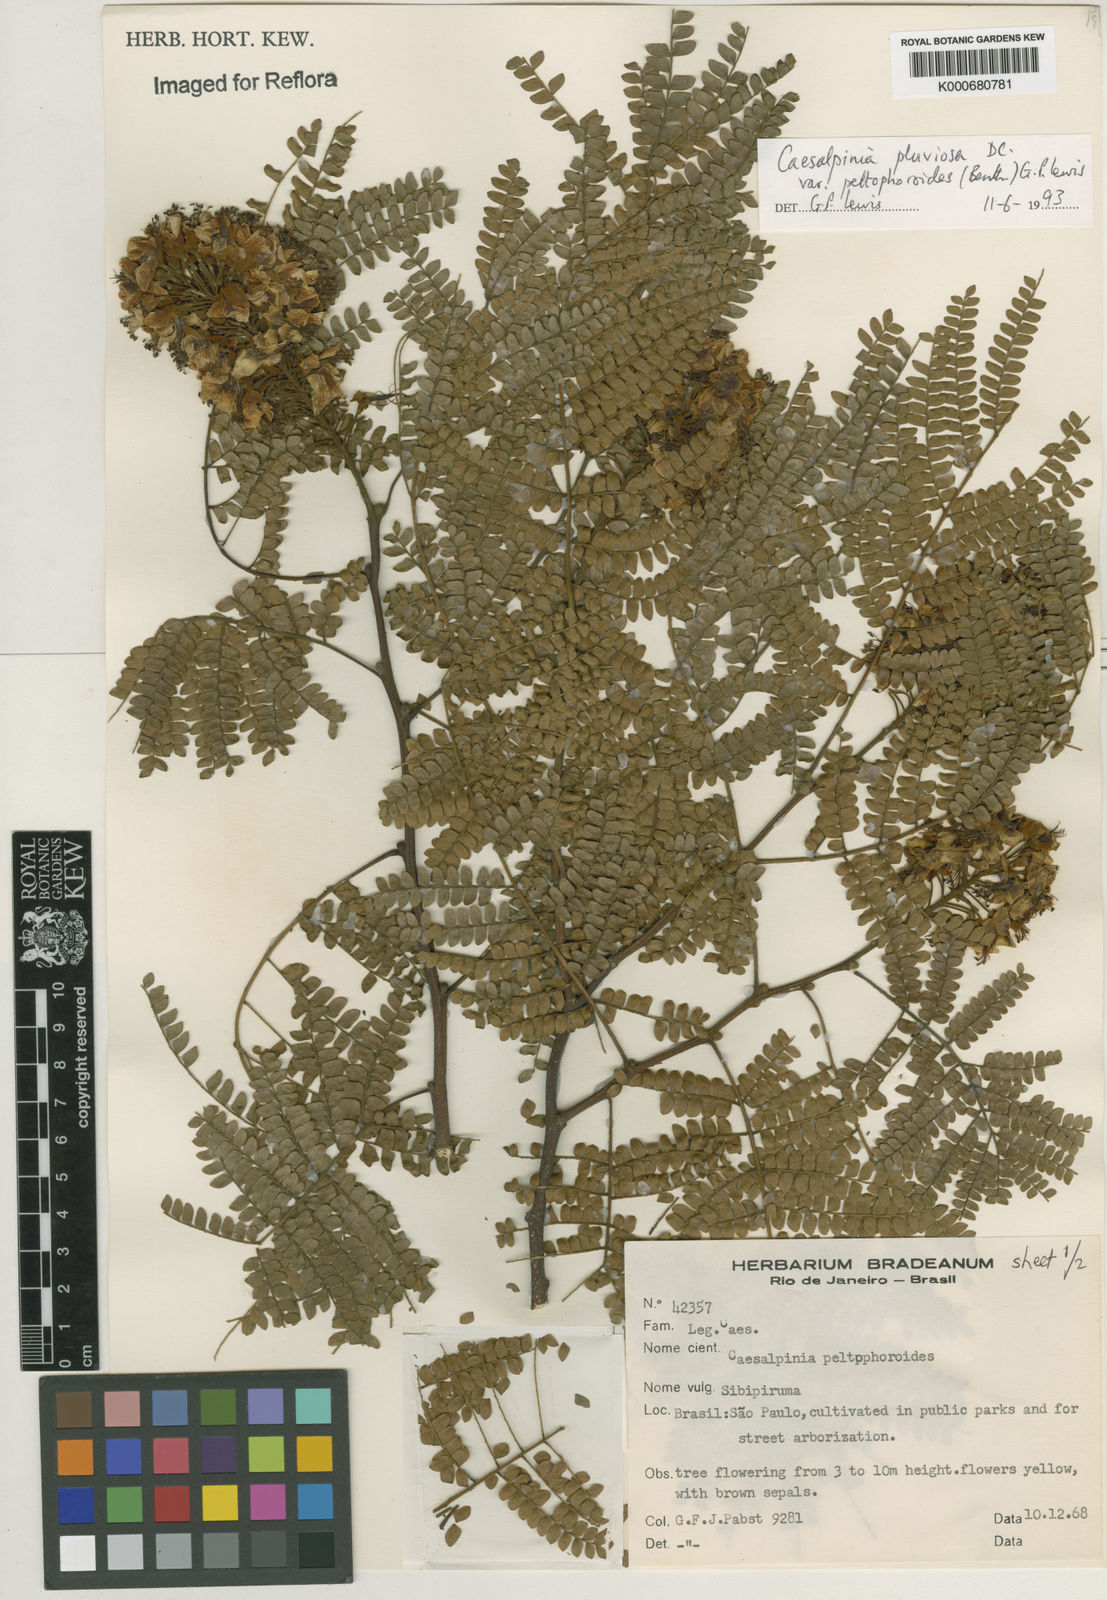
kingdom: Plantae
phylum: Tracheophyta
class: Magnoliopsida
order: Fabales
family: Fabaceae
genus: Cenostigma
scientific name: Cenostigma pluviosum
